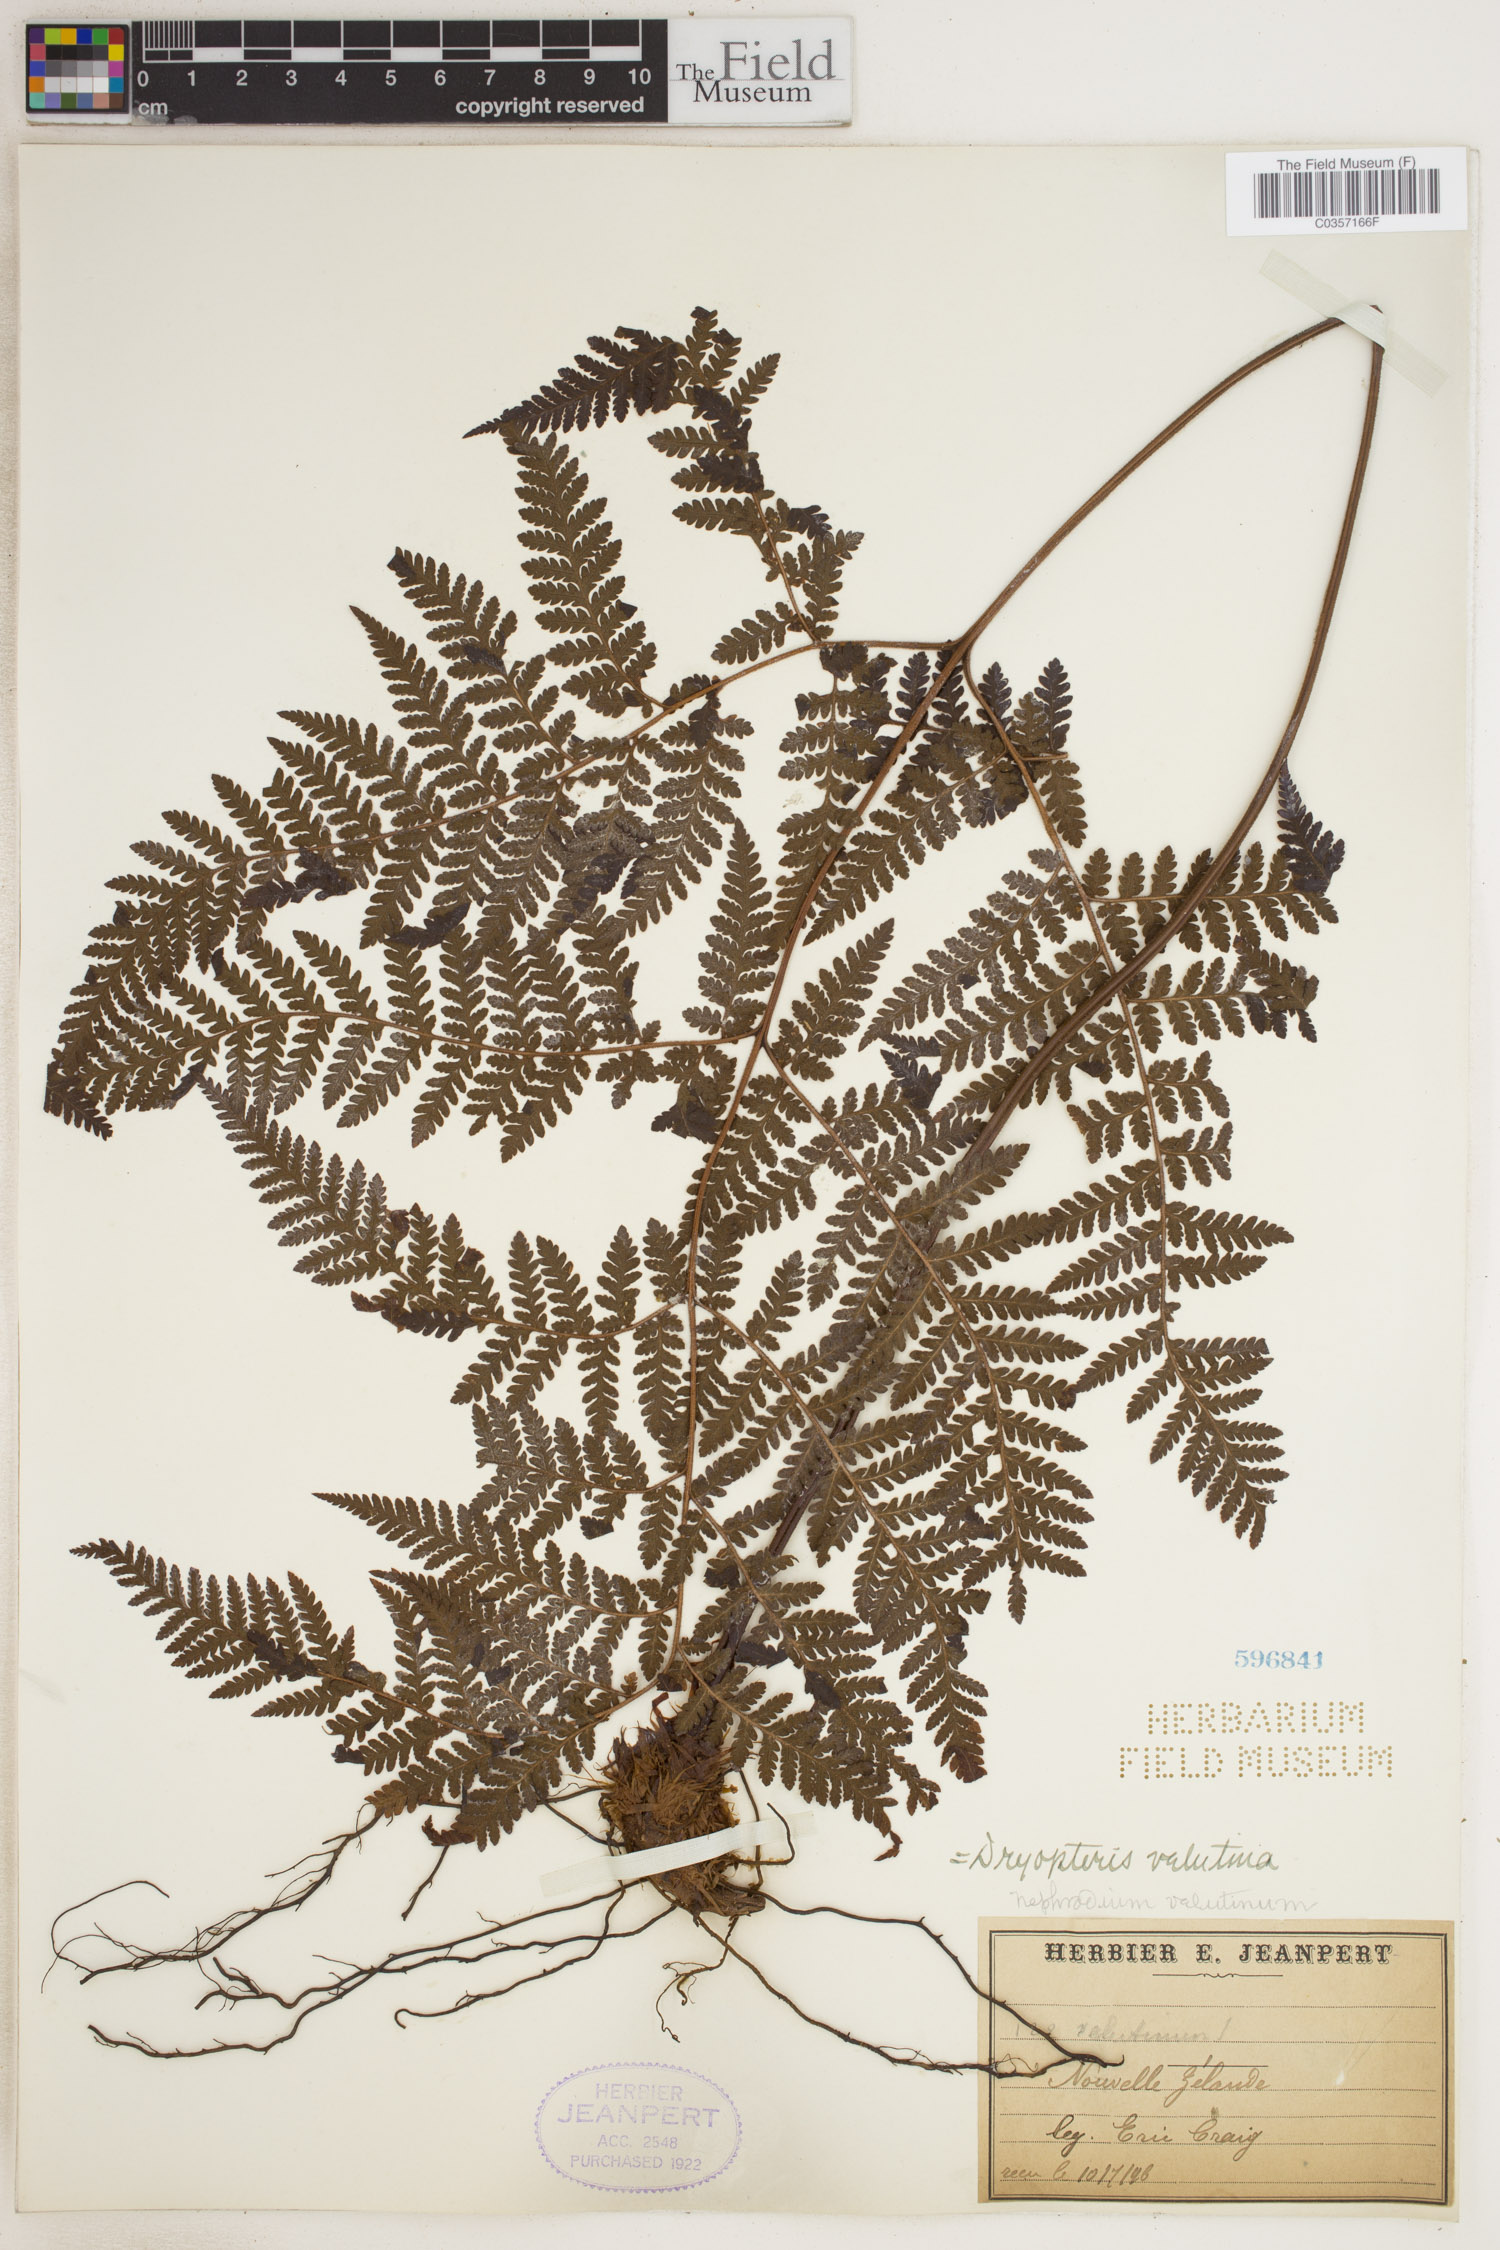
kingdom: Plantae
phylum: Tracheophyta
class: Polypodiopsida
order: Polypodiales
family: Dryopteridaceae
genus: Lastreopsis
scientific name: Lastreopsis velutina
